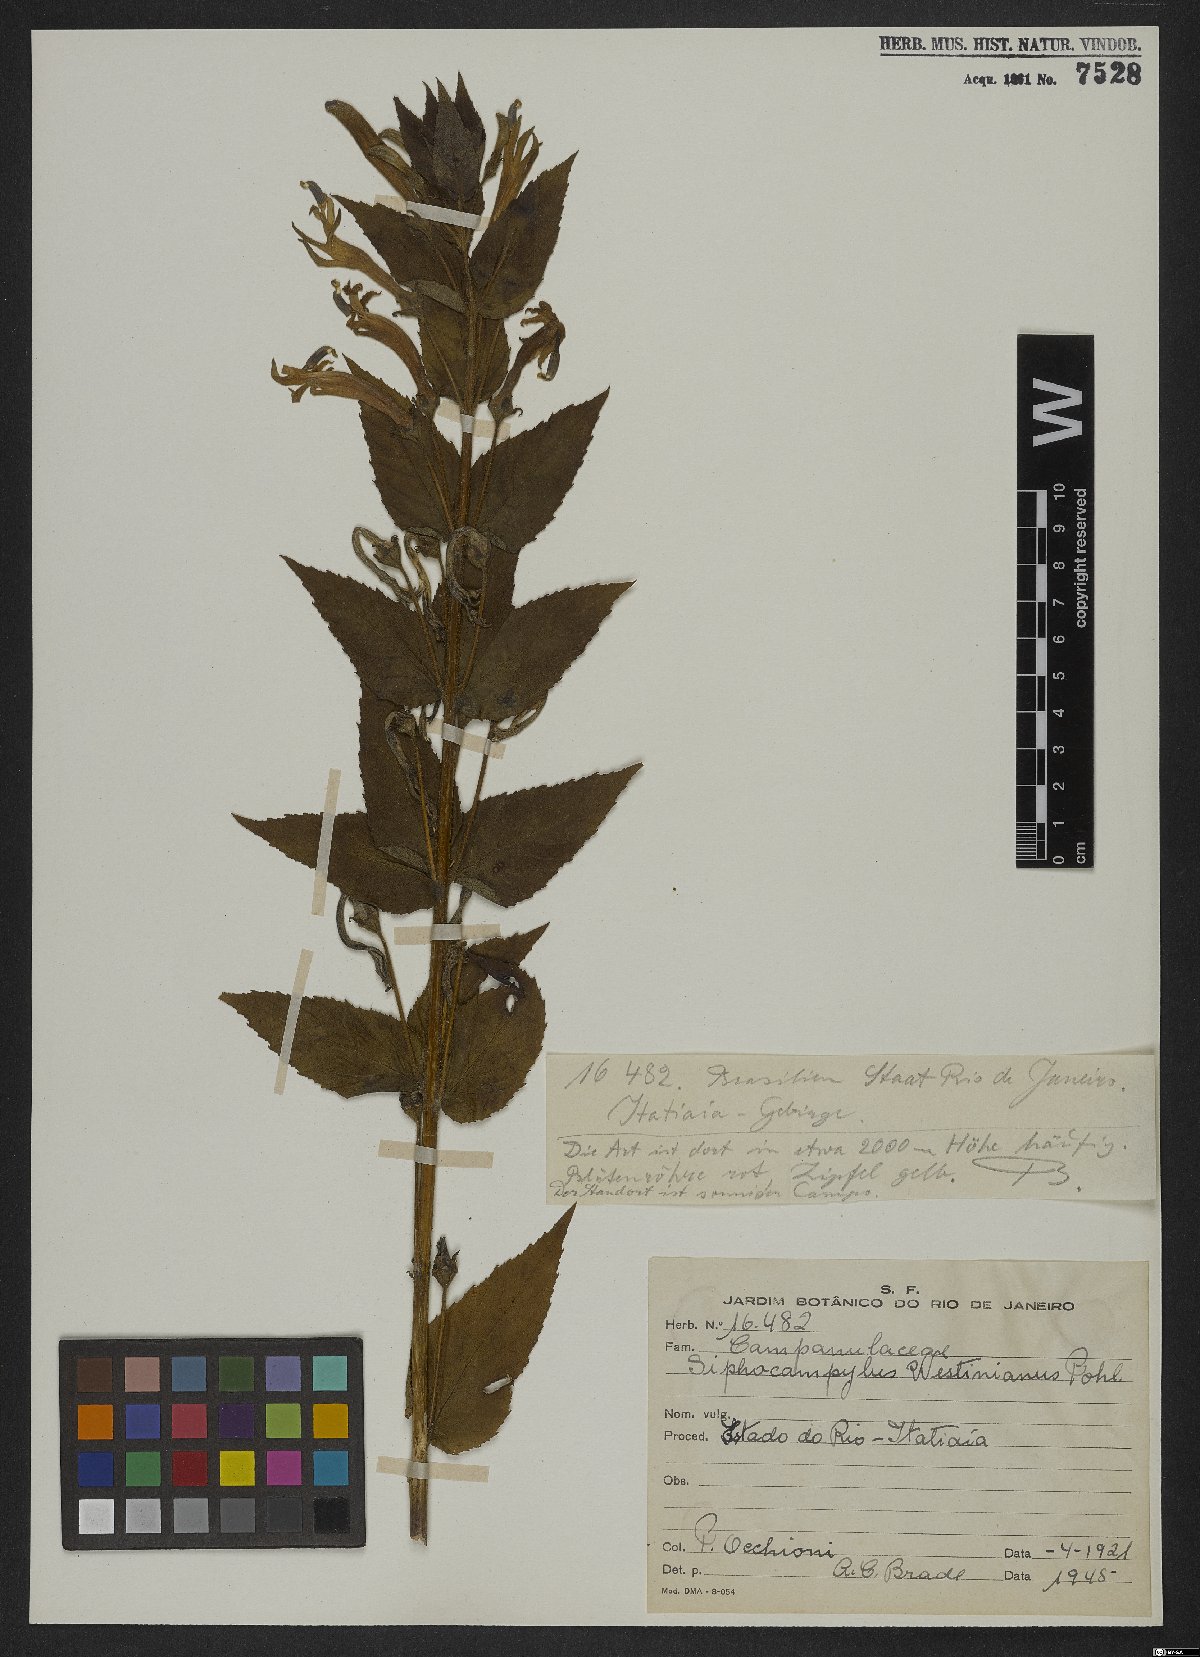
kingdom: Plantae
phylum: Tracheophyta
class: Magnoliopsida
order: Asterales
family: Campanulaceae
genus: Siphocampylus
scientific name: Siphocampylus westinianus
